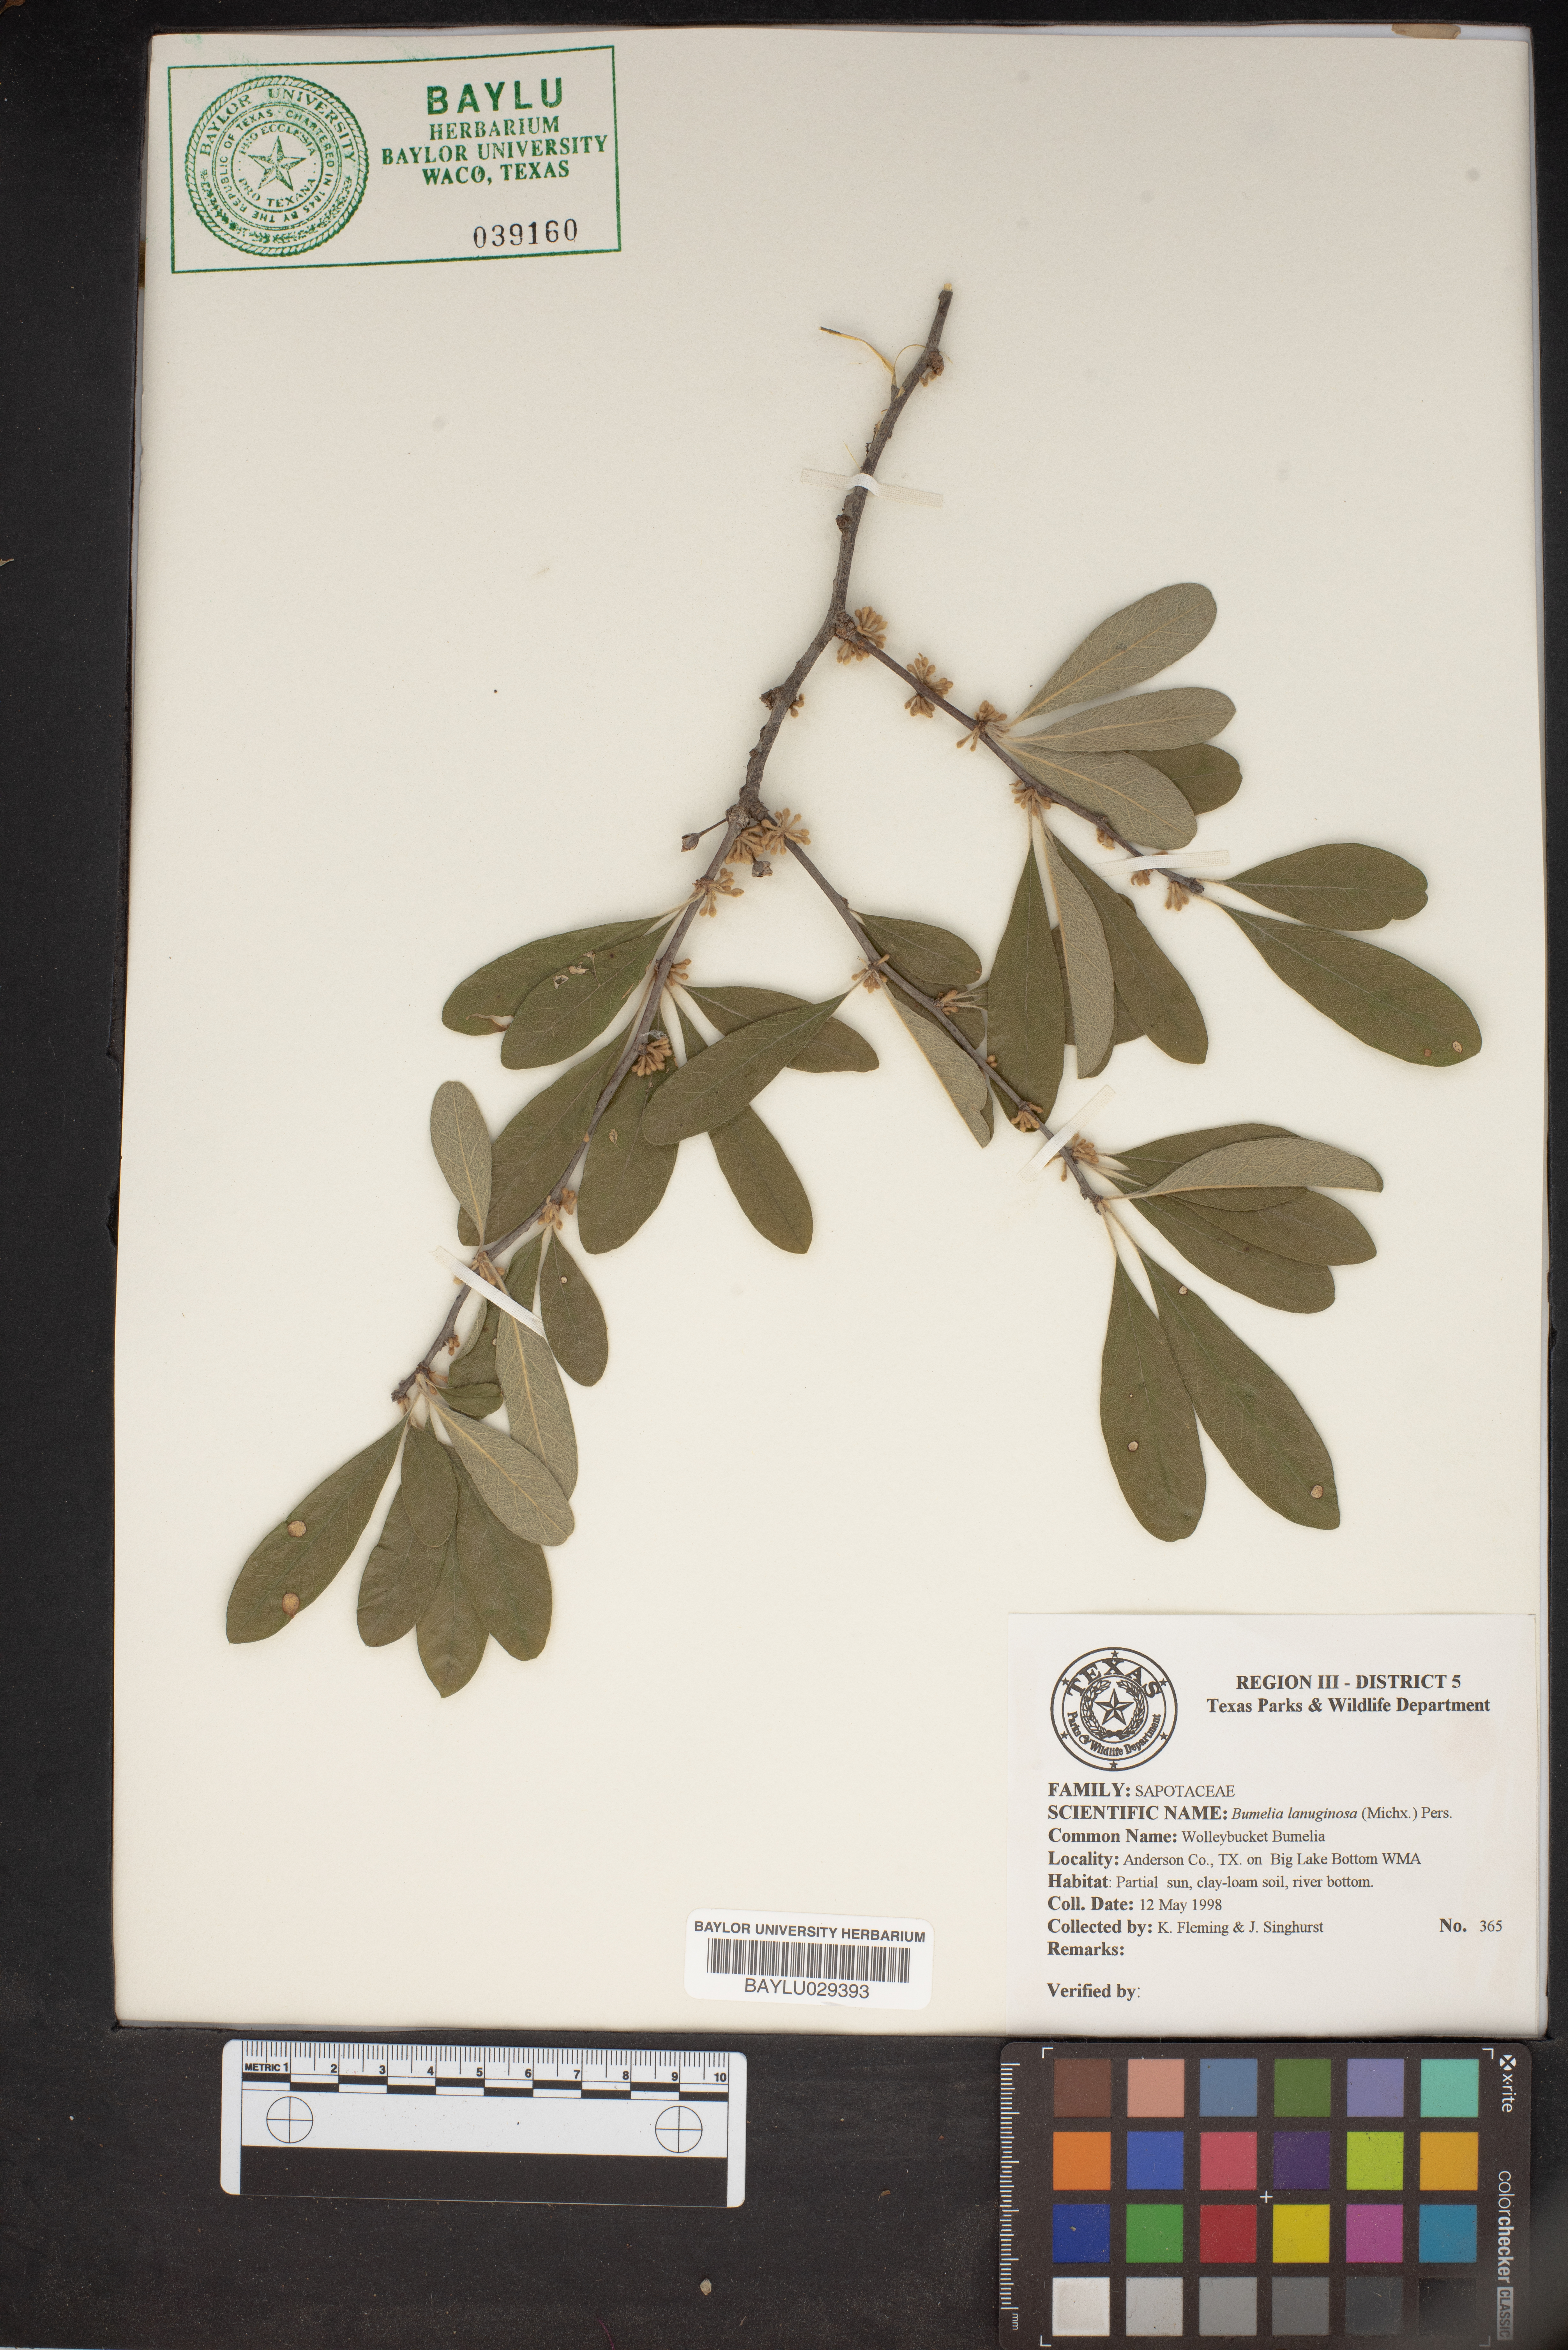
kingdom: Plantae
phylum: Tracheophyta
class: Magnoliopsida
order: Ericales
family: Sapotaceae
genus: Sideroxylon
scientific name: Sideroxylon lanuginosum
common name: Chittamwood
